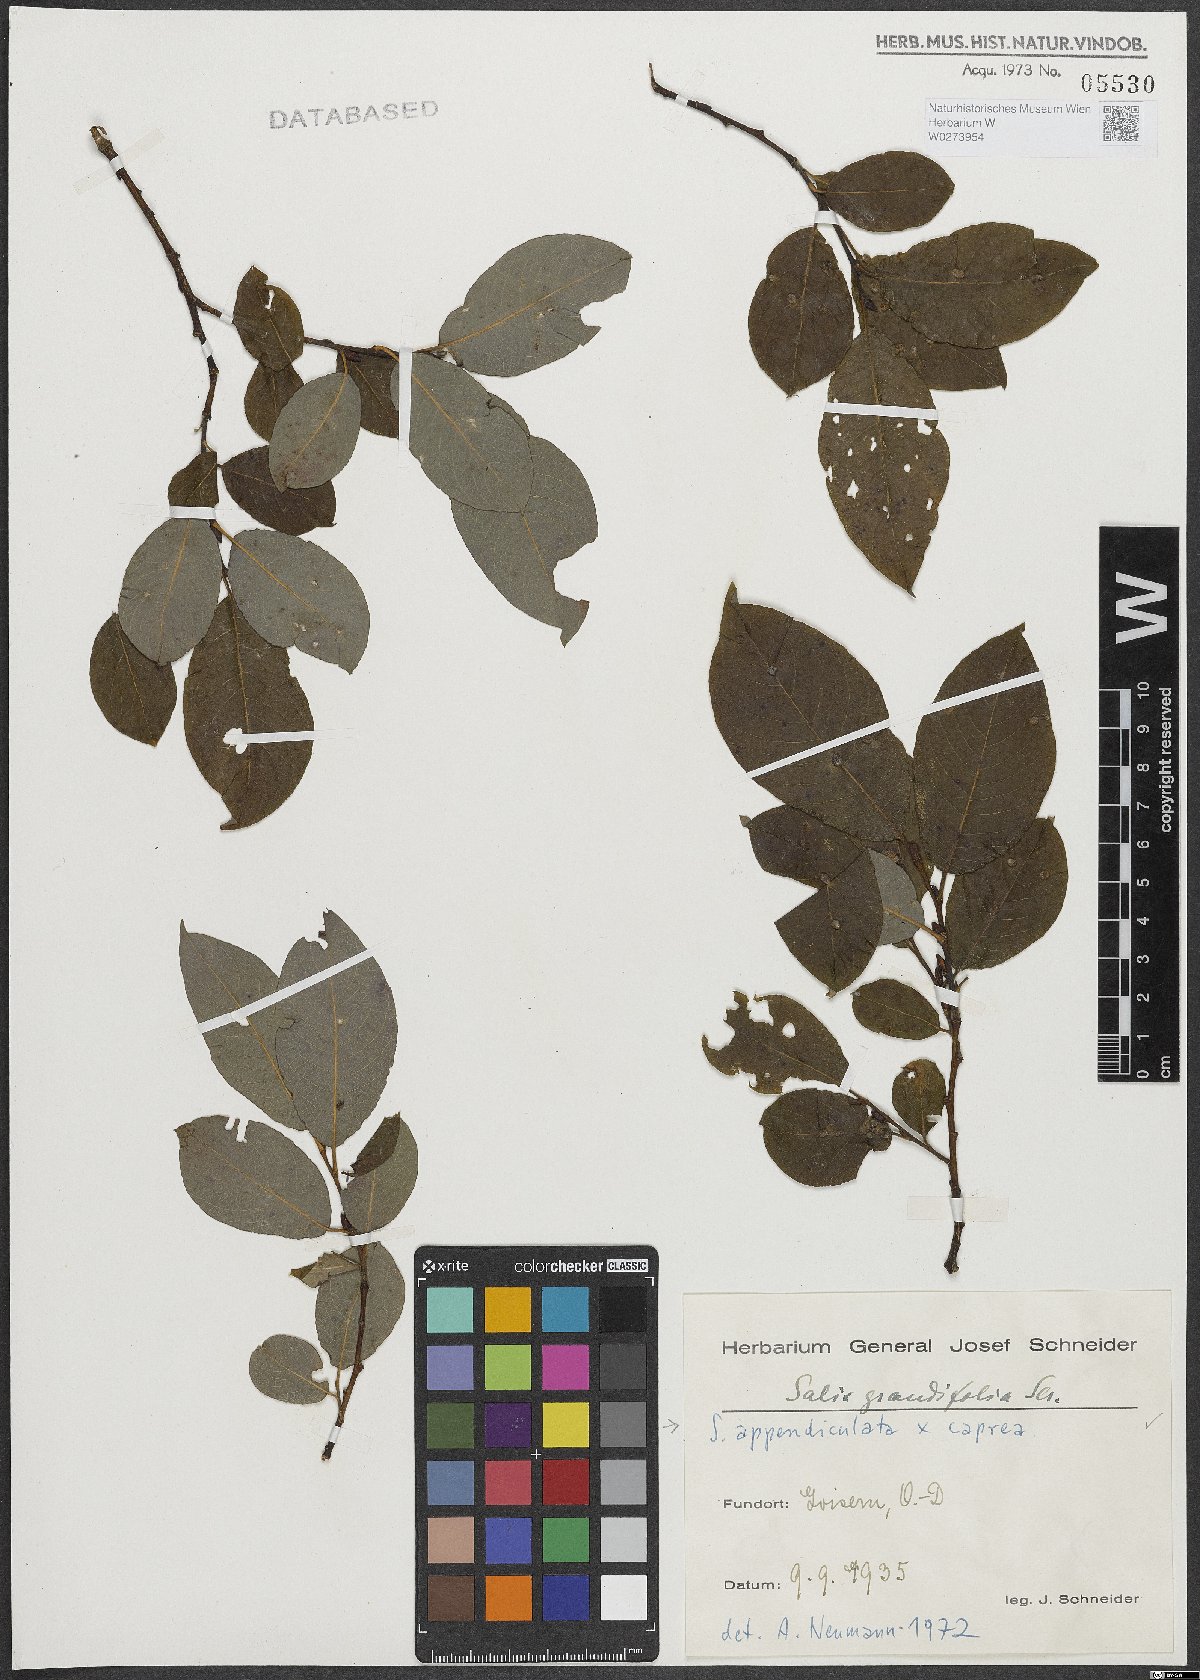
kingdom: Plantae
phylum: Tracheophyta
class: Magnoliopsida
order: Malpighiales
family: Salicaceae
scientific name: Salicaceae
